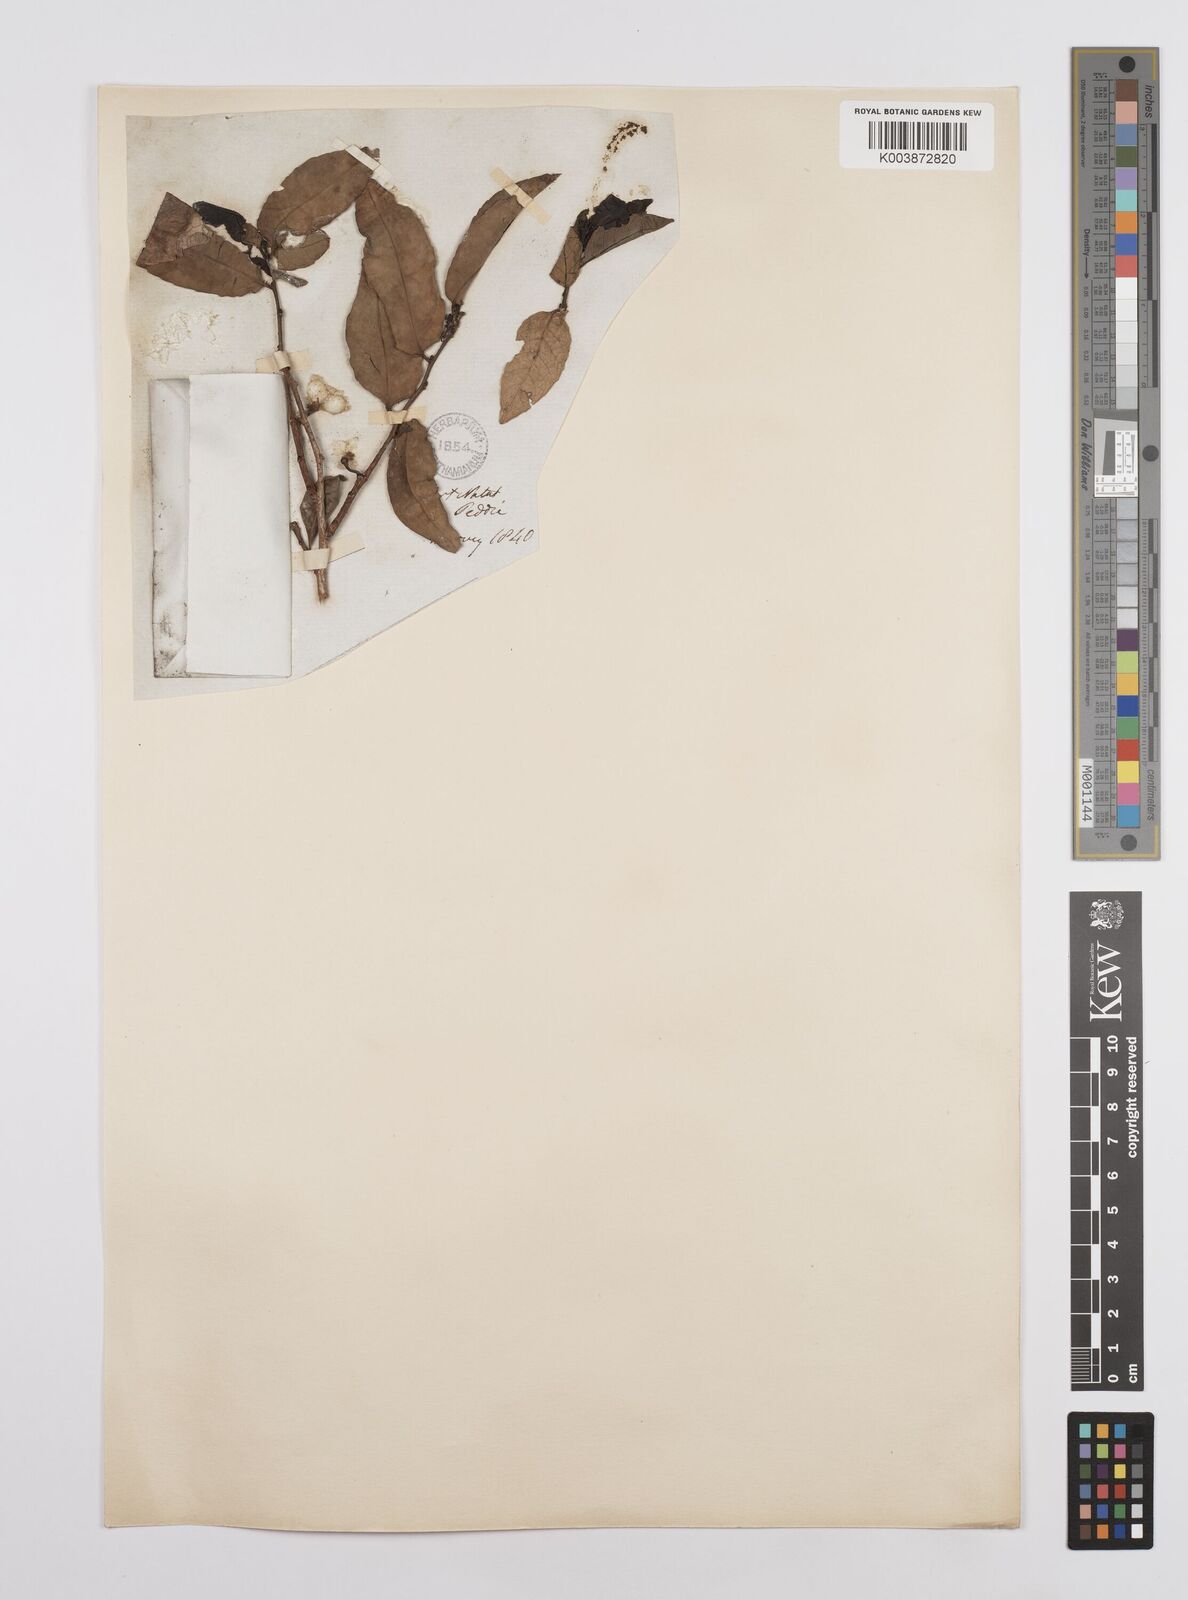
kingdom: Plantae
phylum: Tracheophyta
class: Magnoliopsida
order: Malpighiales
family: Euphorbiaceae
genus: Sclerocroton
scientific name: Sclerocroton integerrimus
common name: Duiker berry
